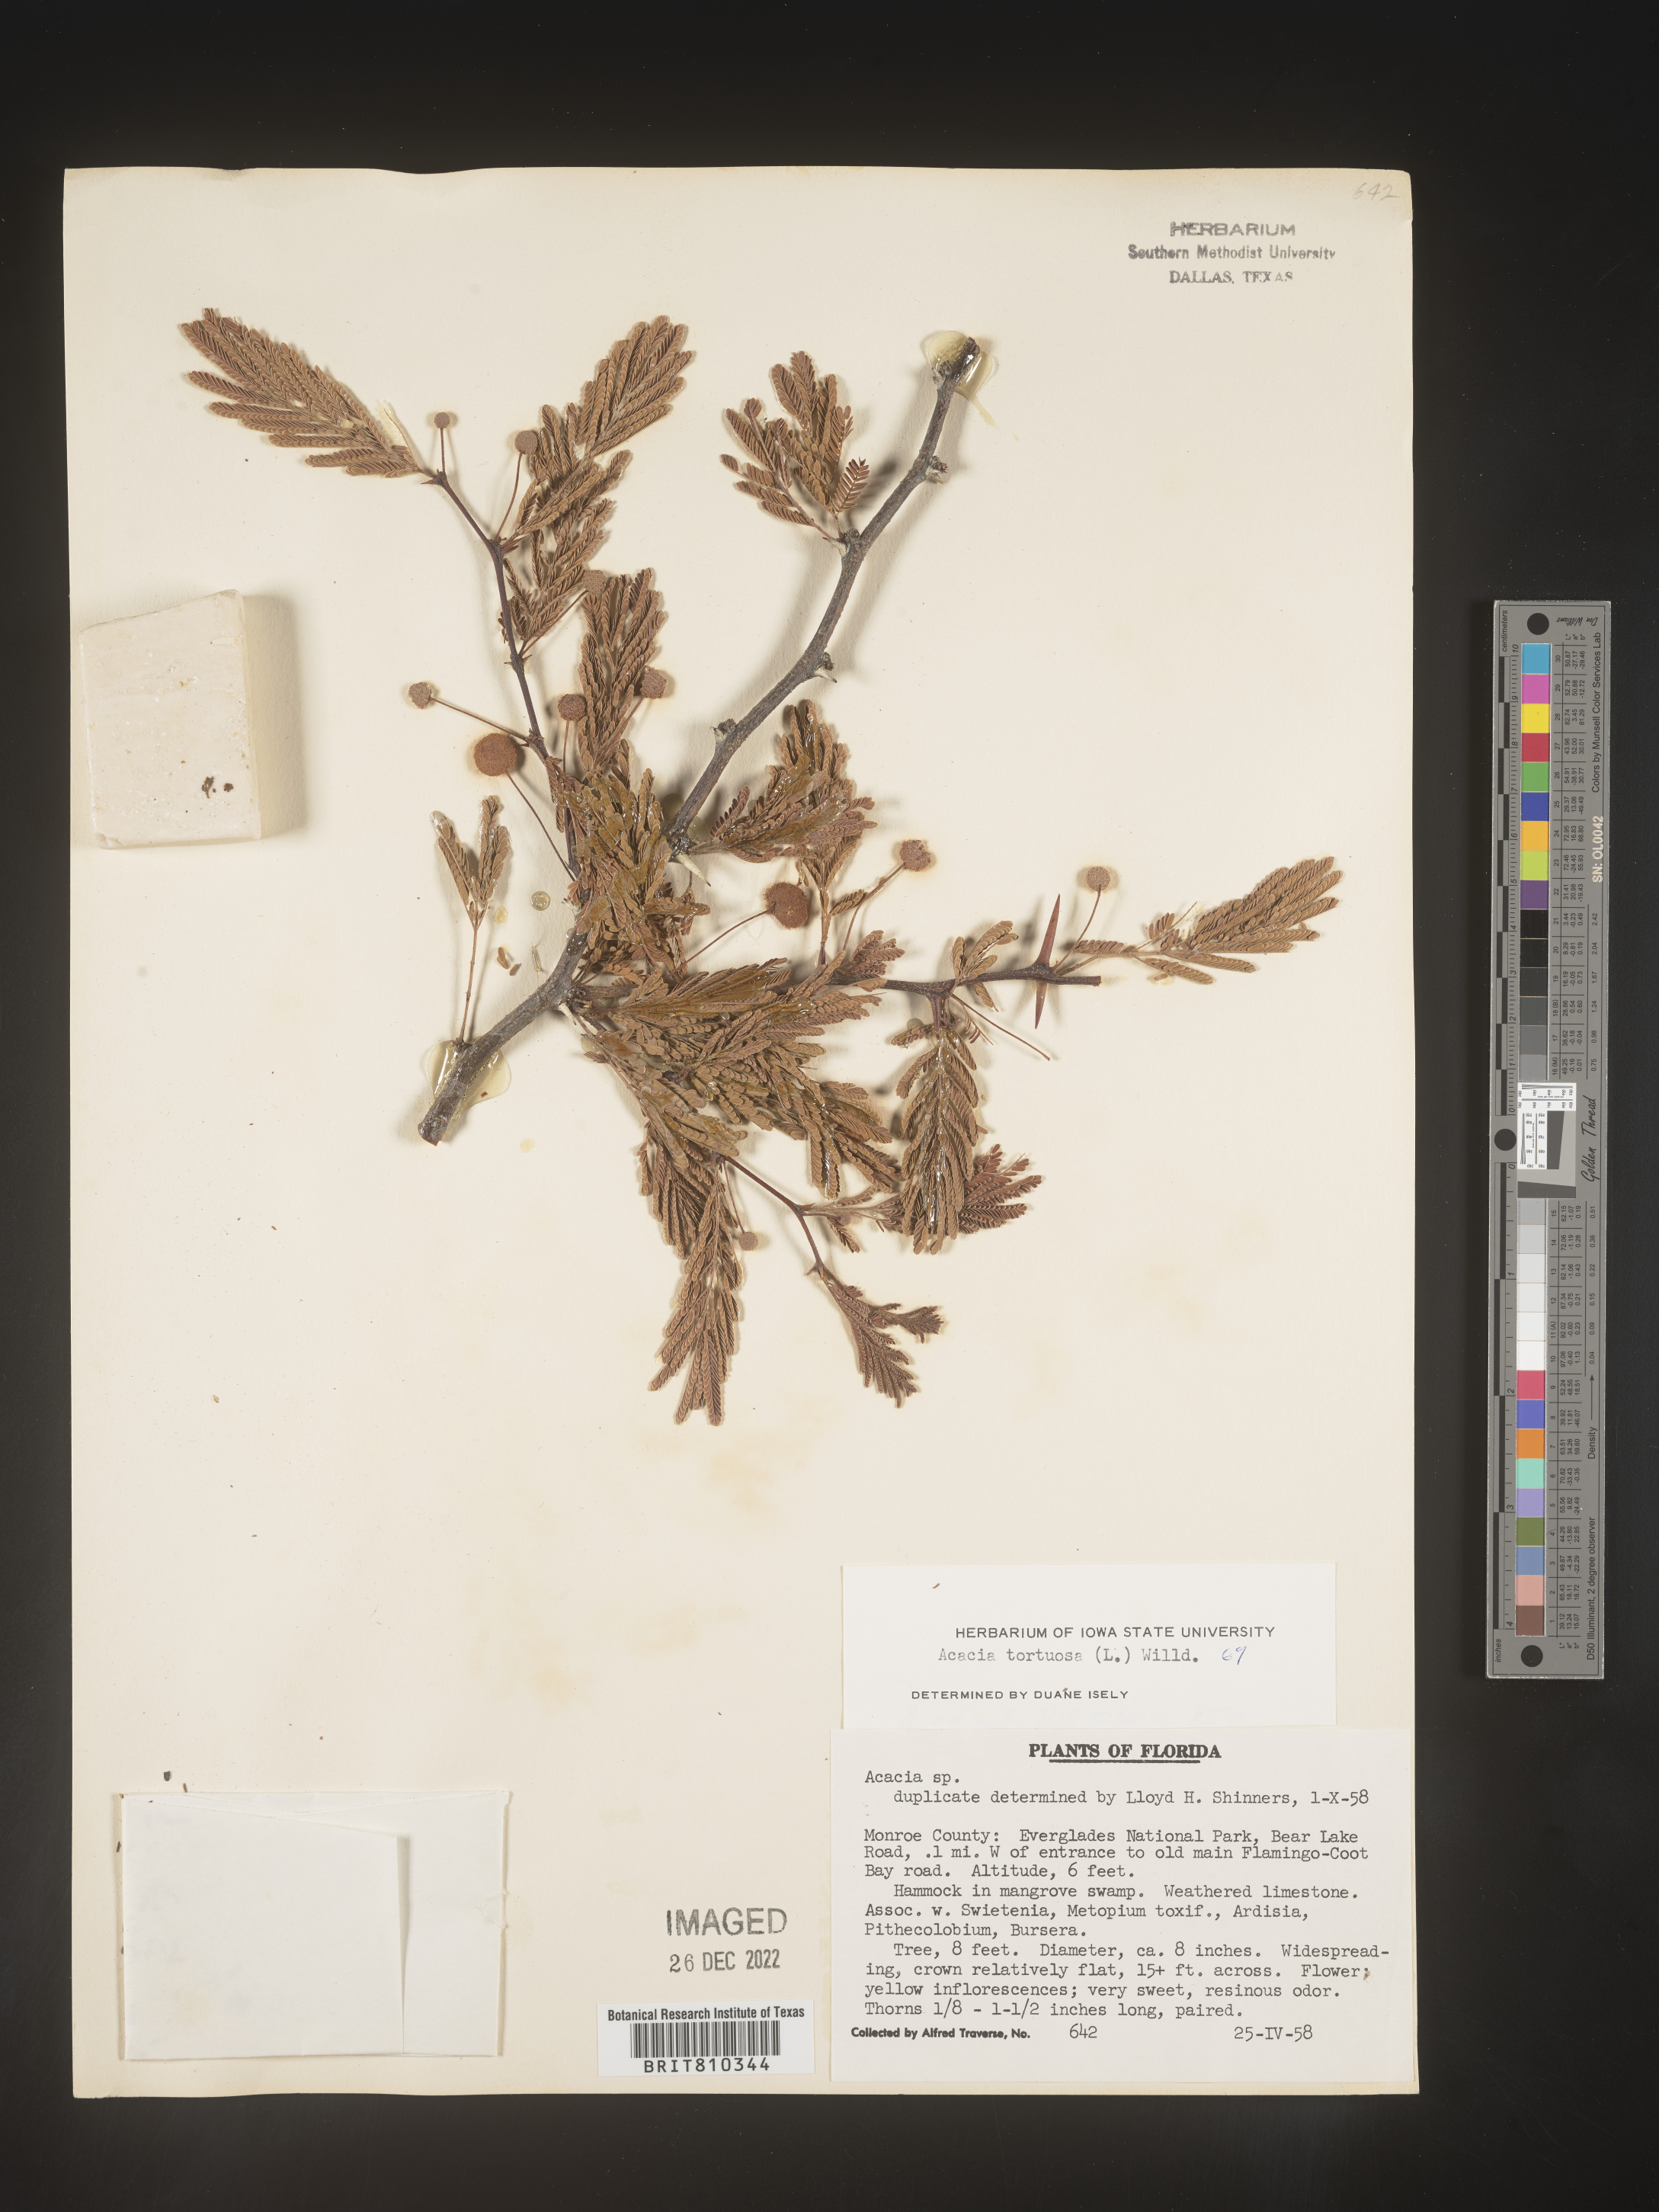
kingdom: Plantae
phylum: Tracheophyta
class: Magnoliopsida
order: Fabales
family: Fabaceae
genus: Acacia
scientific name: Acacia
